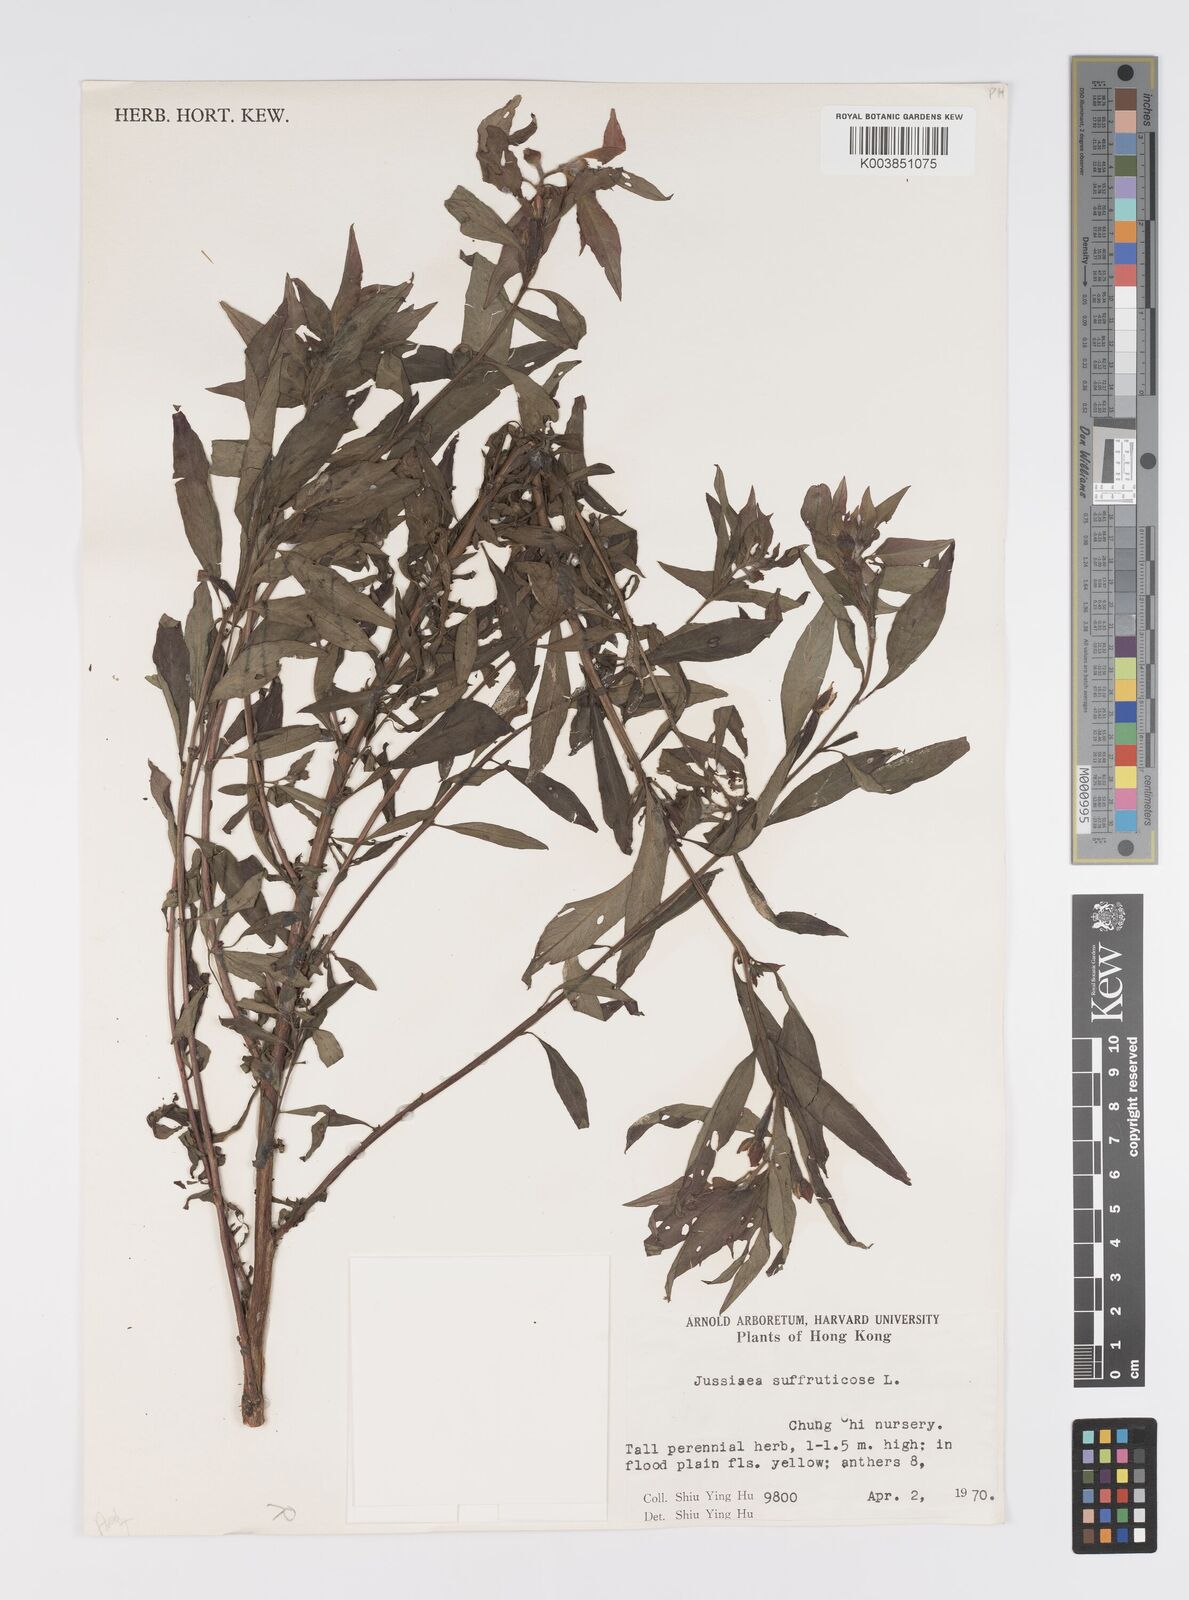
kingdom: Plantae
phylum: Tracheophyta
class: Magnoliopsida
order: Myrtales
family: Onagraceae
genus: Ludwigia
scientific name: Ludwigia octovalvis
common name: Water-primrose
